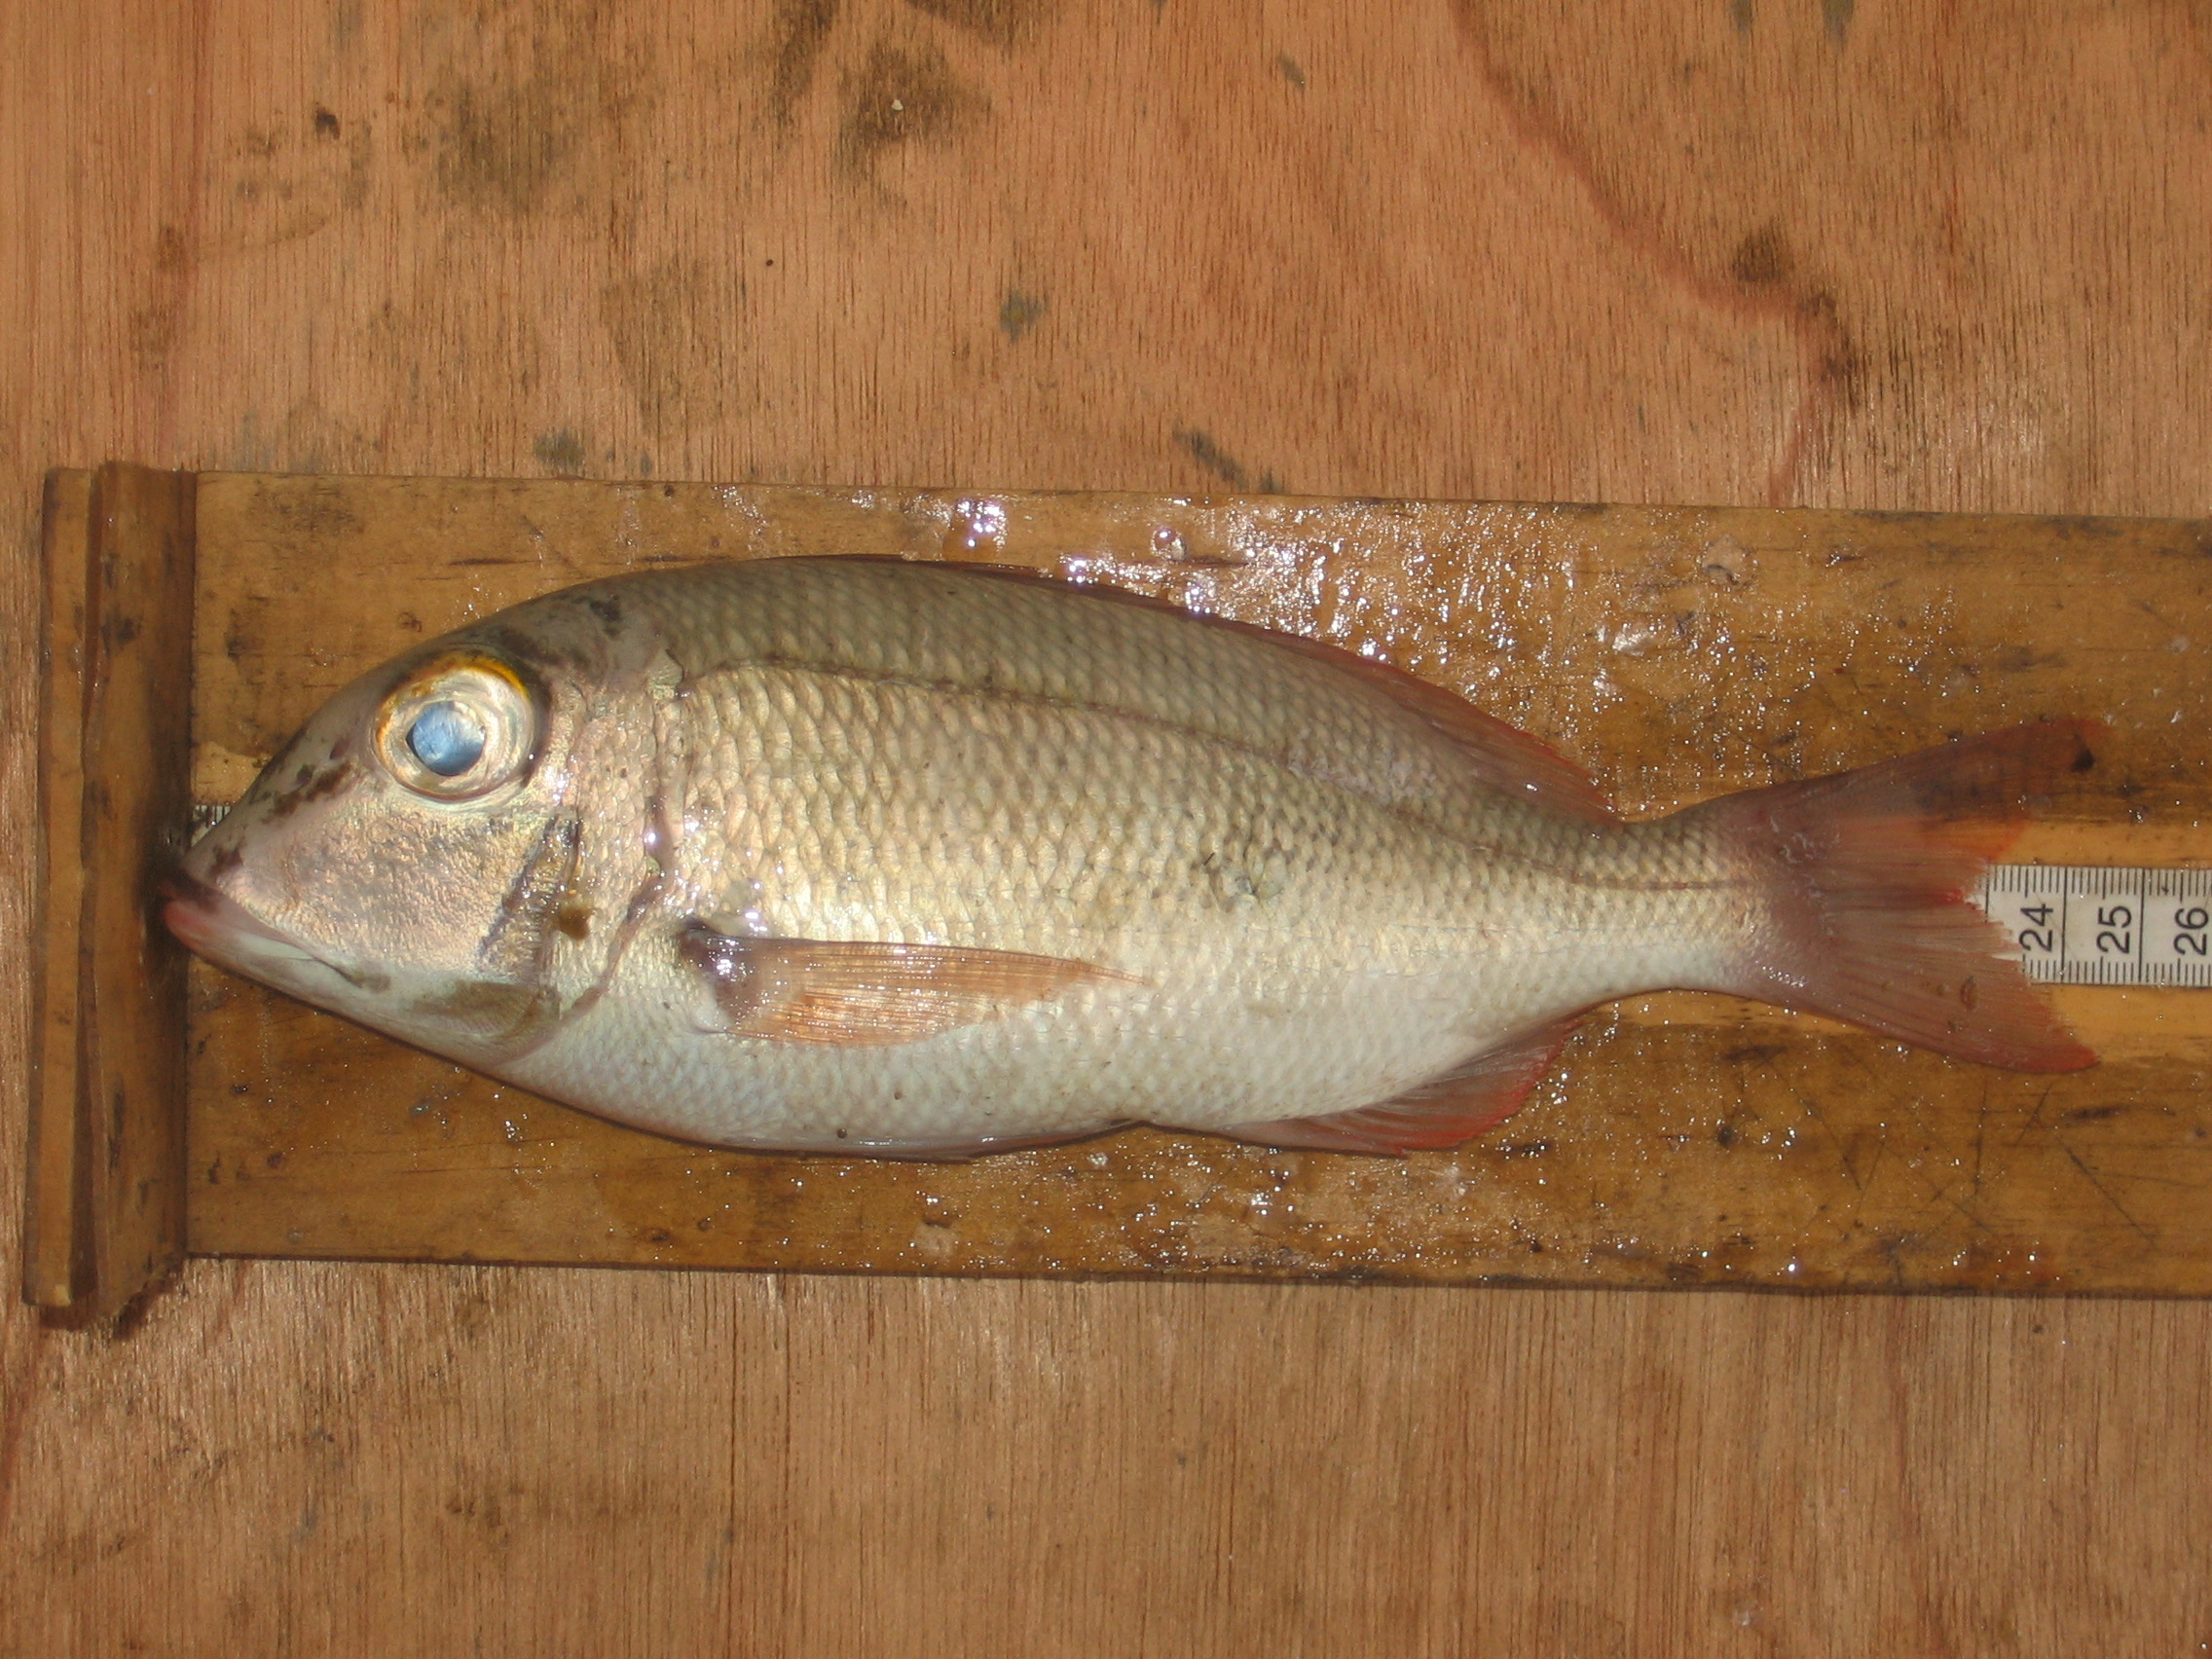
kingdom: Animalia
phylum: Chordata
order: Perciformes
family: Lethrinidae
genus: Lethrinus
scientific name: Lethrinus
